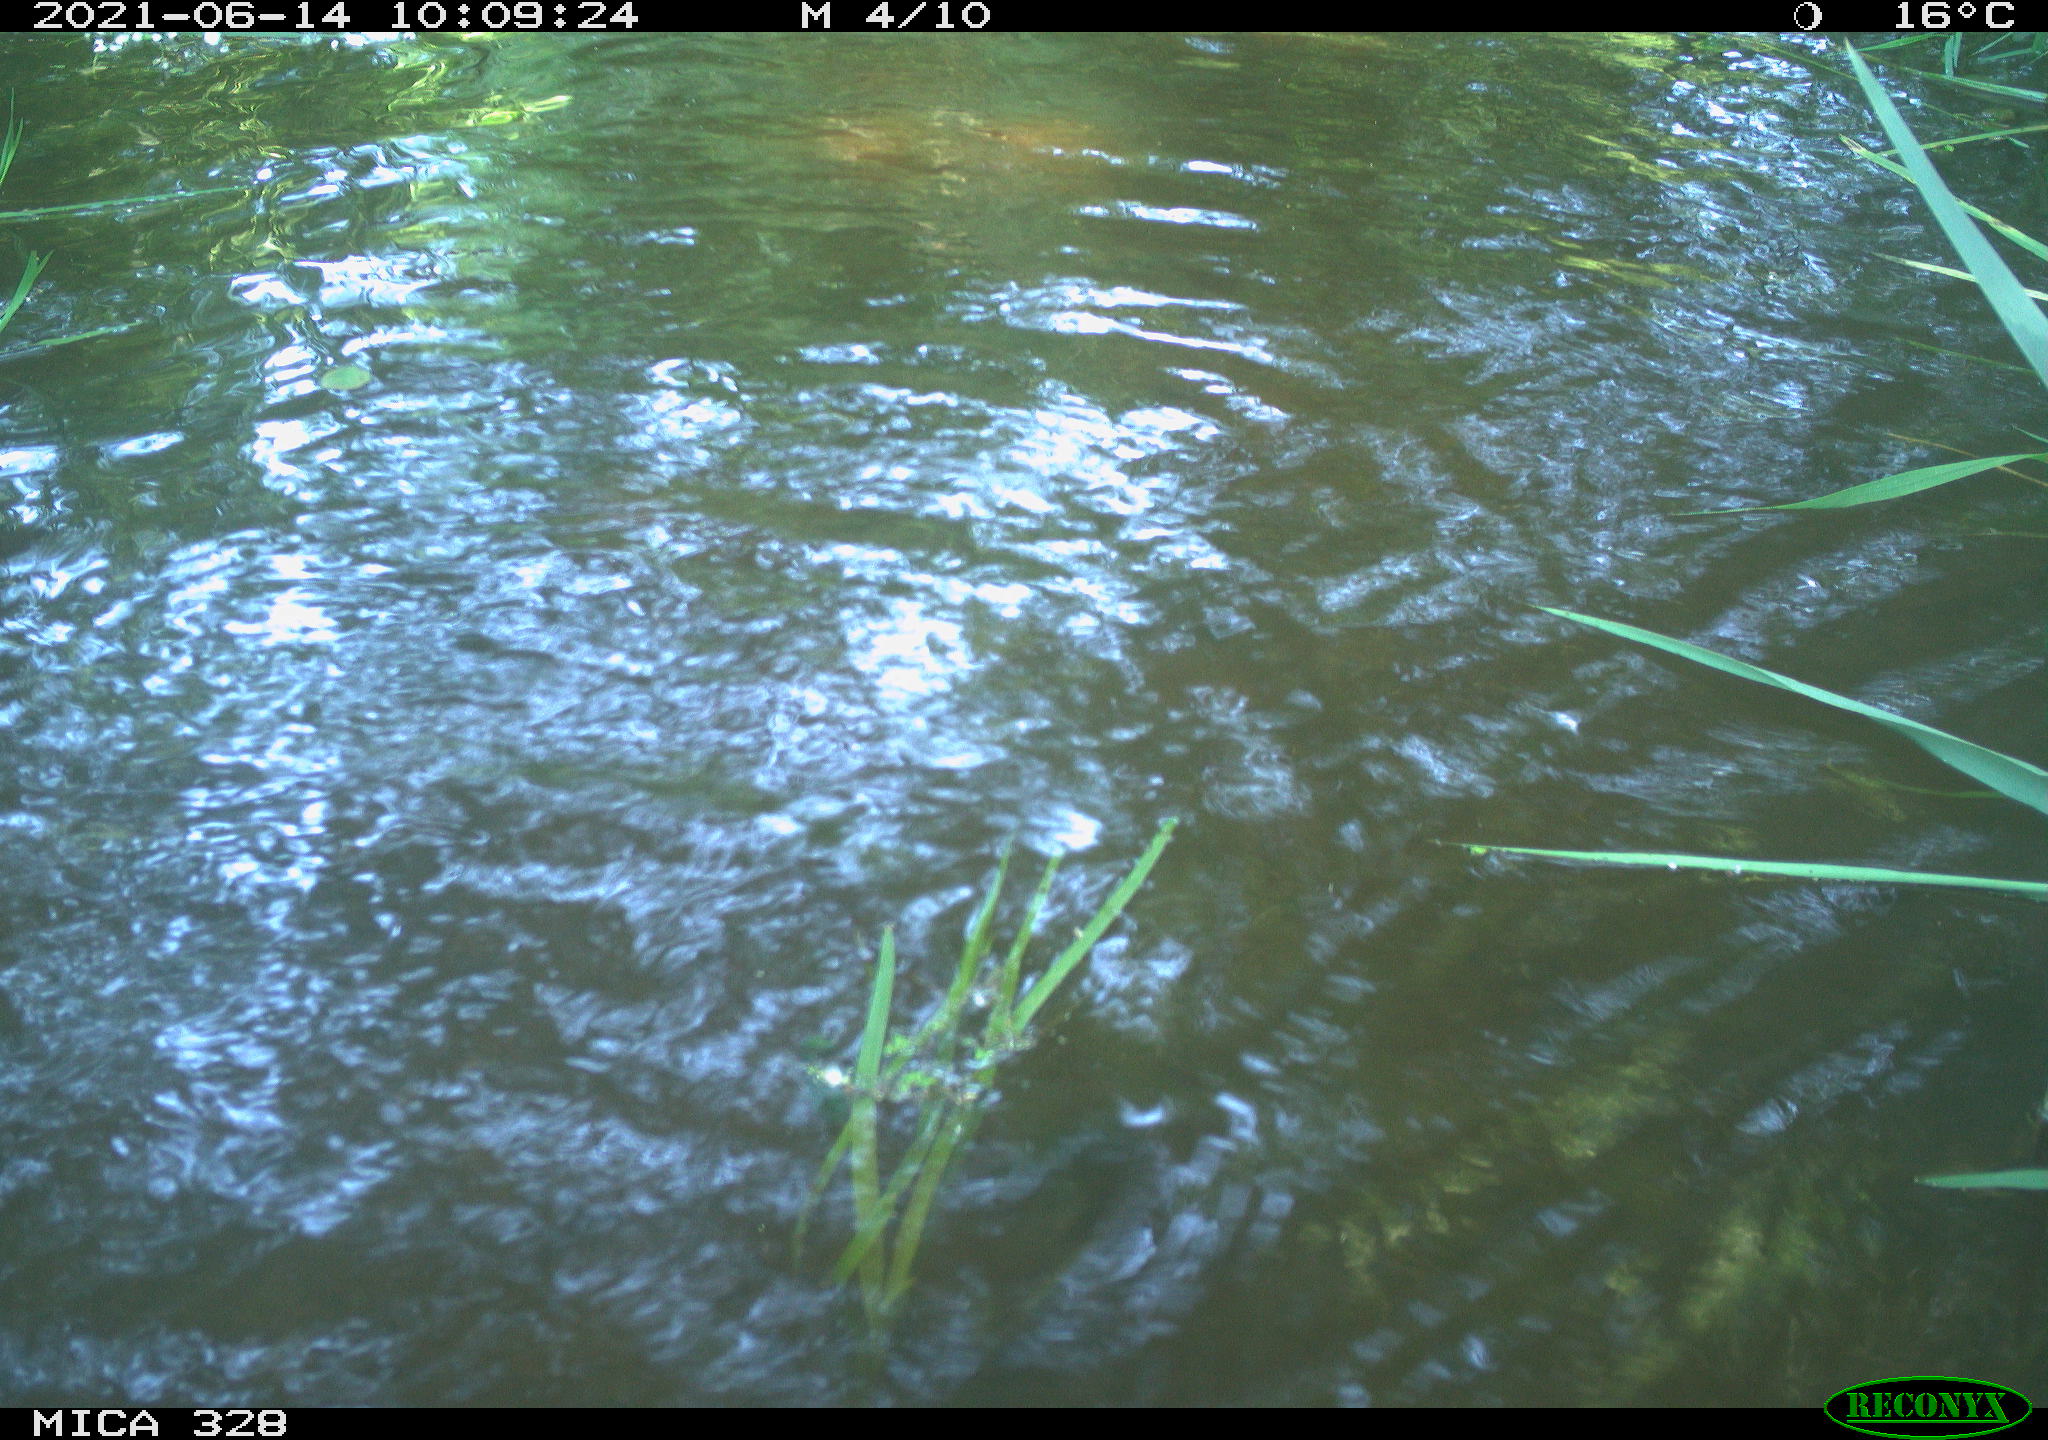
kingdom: Animalia
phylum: Chordata
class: Mammalia
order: Rodentia
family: Cricetidae
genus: Ondatra
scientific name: Ondatra zibethicus
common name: Muskrat
